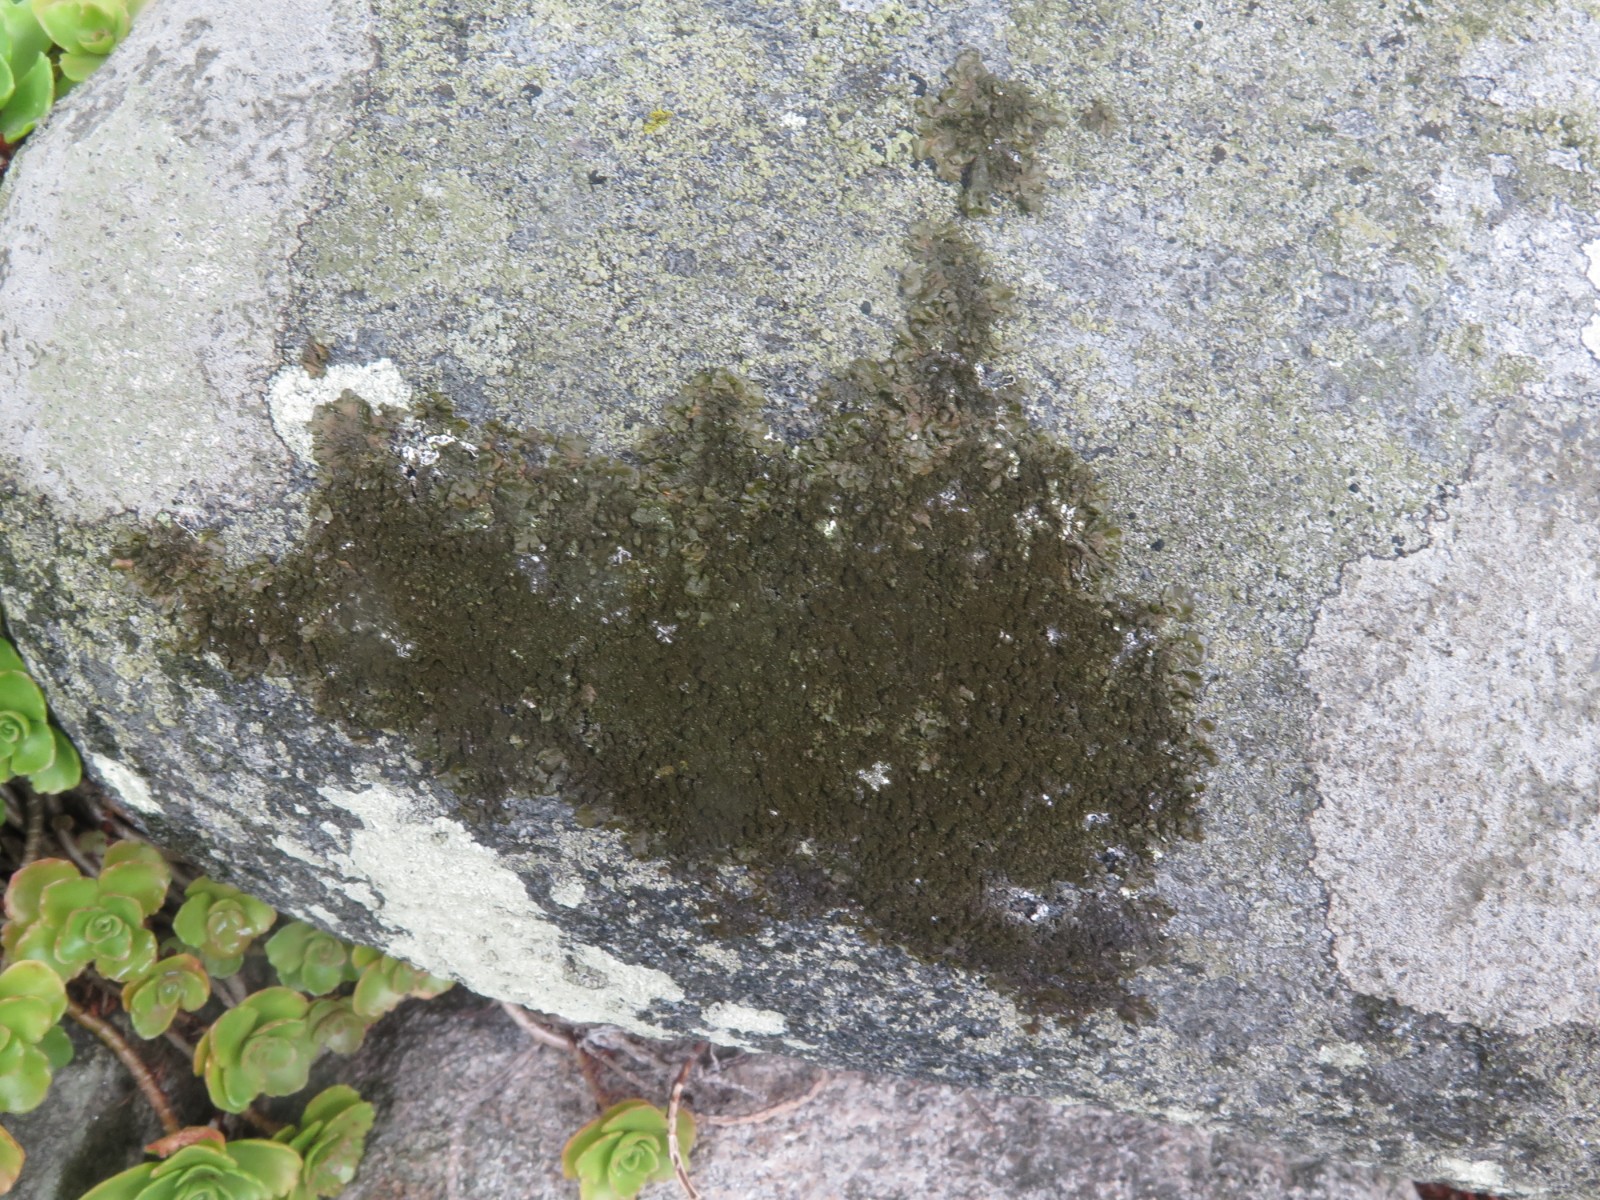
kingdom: Fungi
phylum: Ascomycota
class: Lecanoromycetes
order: Lecanorales
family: Parmeliaceae
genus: Melanelixia
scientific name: Melanelixia fuliginosa
